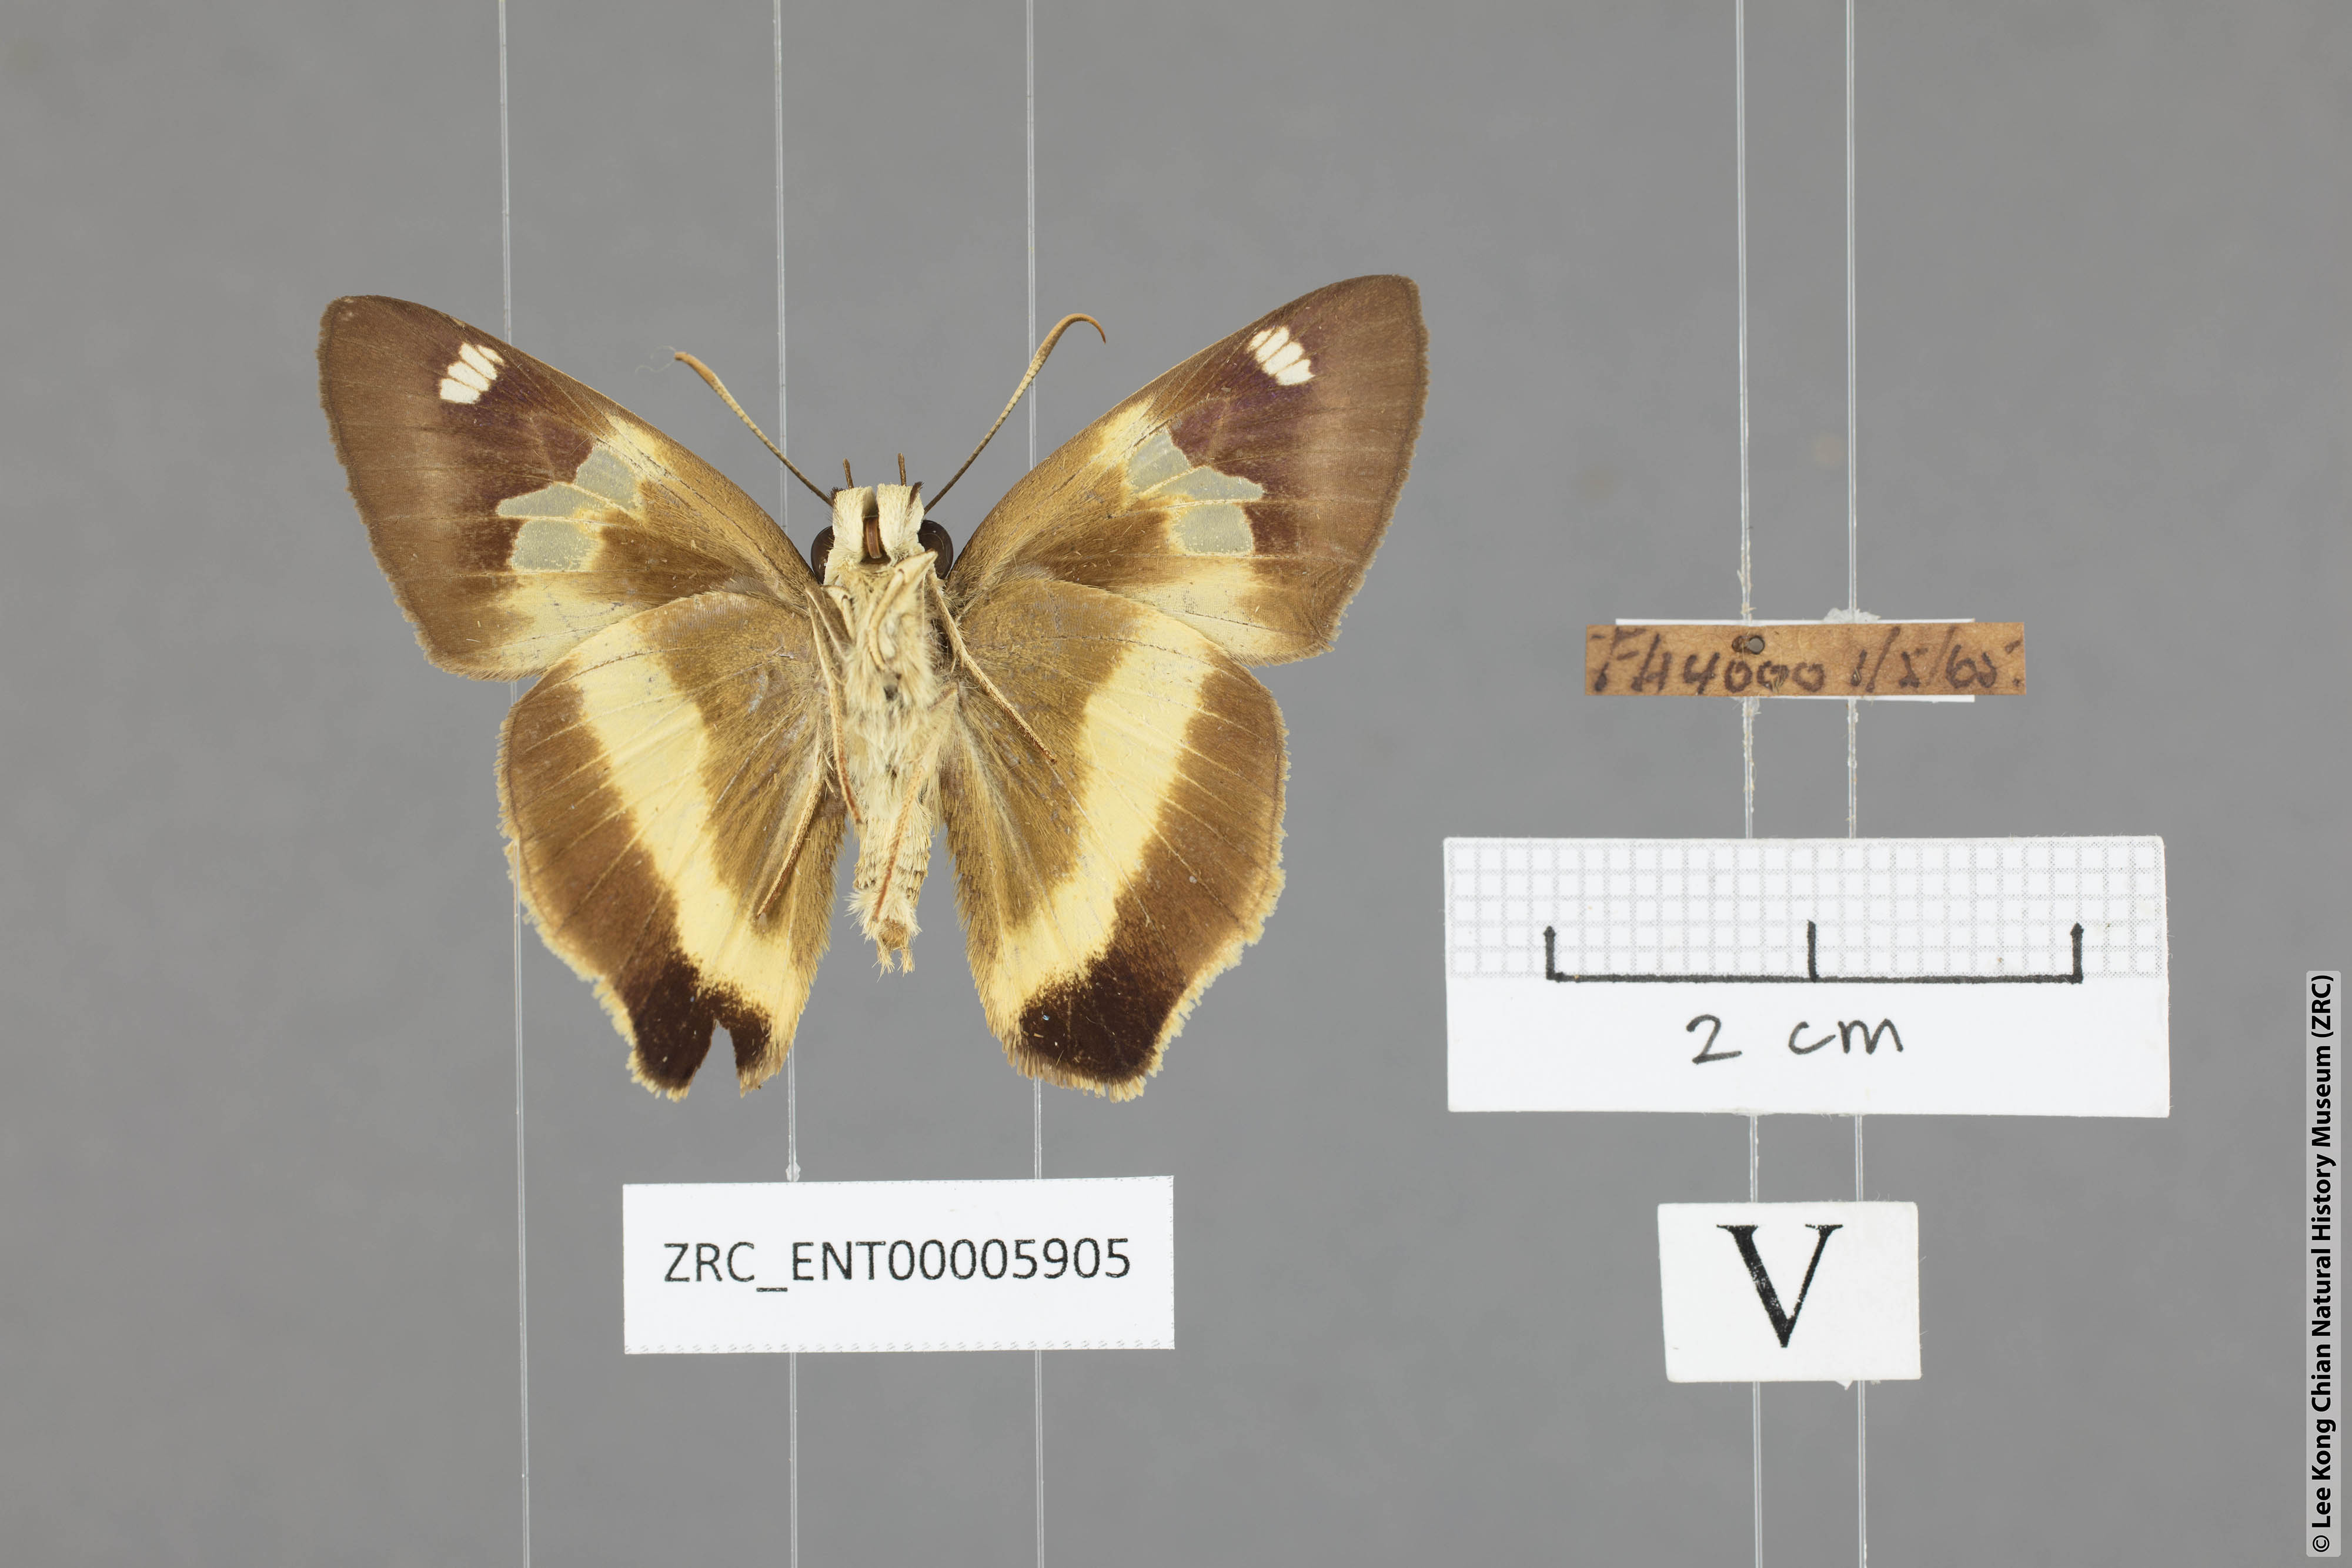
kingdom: Animalia
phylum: Arthropoda
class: Insecta
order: Lepidoptera
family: Hesperiidae
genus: Hasora
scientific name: Hasora schoenherr
